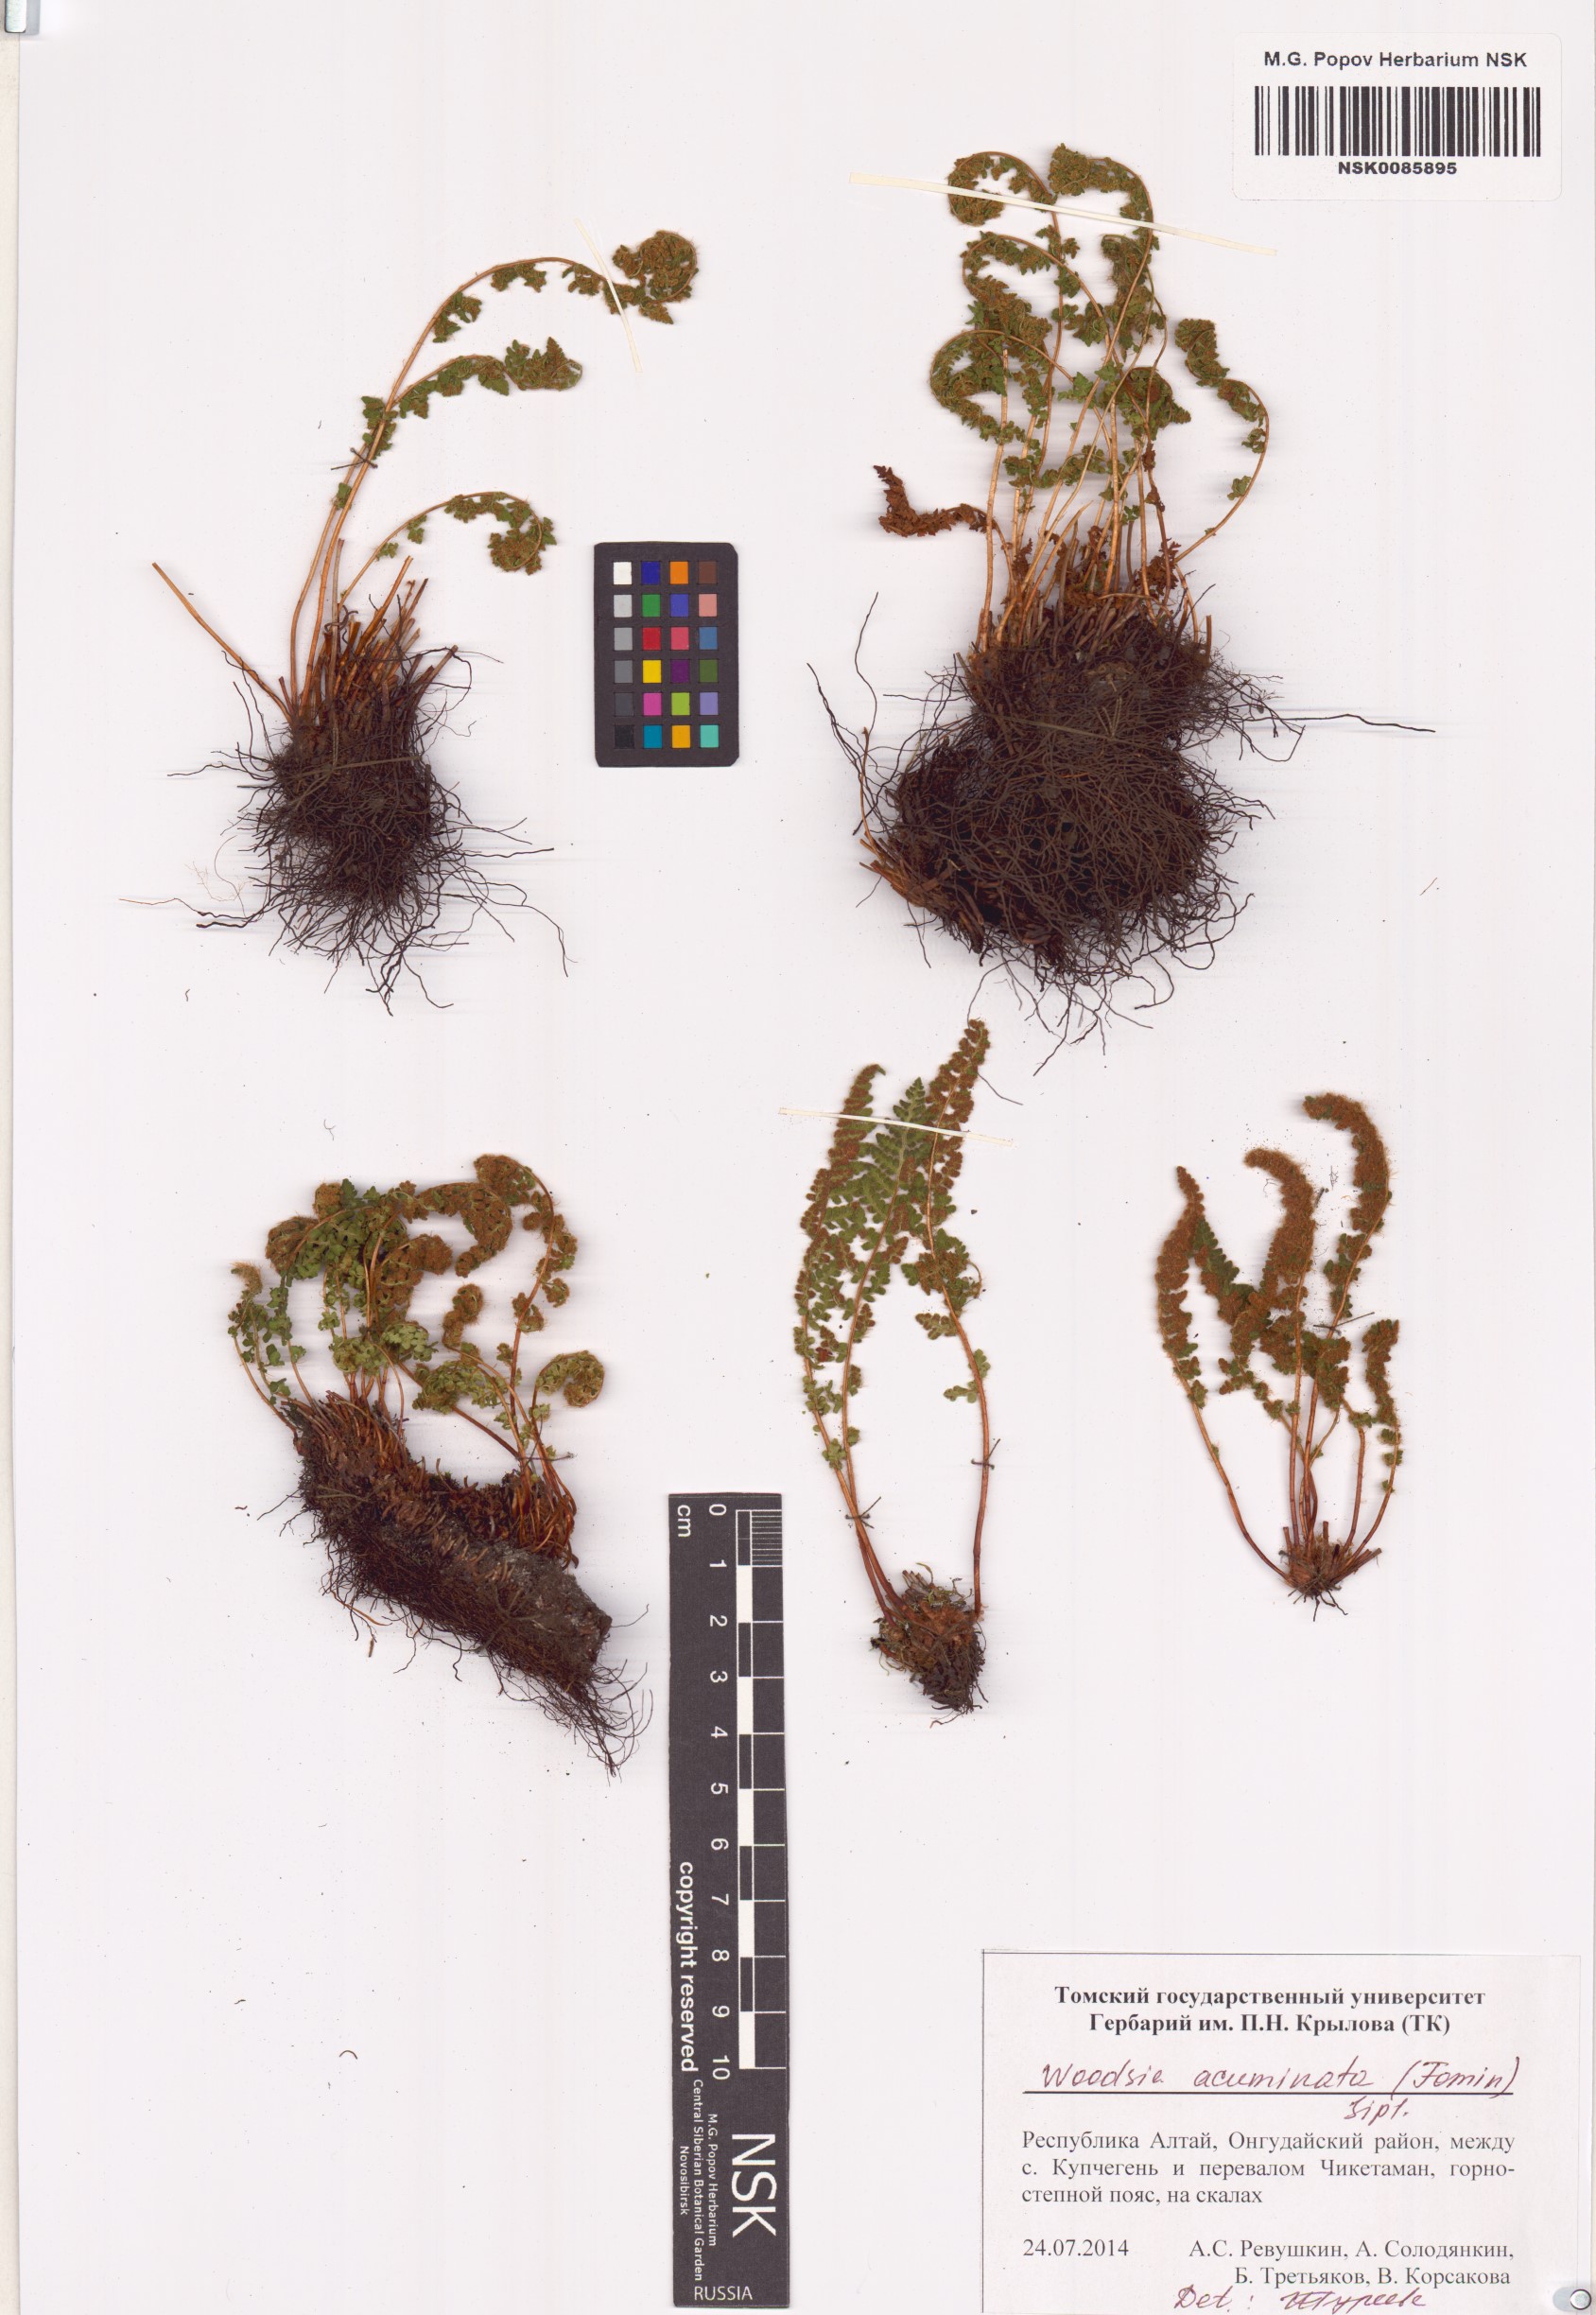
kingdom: Plantae
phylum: Tracheophyta
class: Polypodiopsida
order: Polypodiales
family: Woodsiaceae
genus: Woodsia
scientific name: Woodsia ilvensis
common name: Fragrant woodsia
